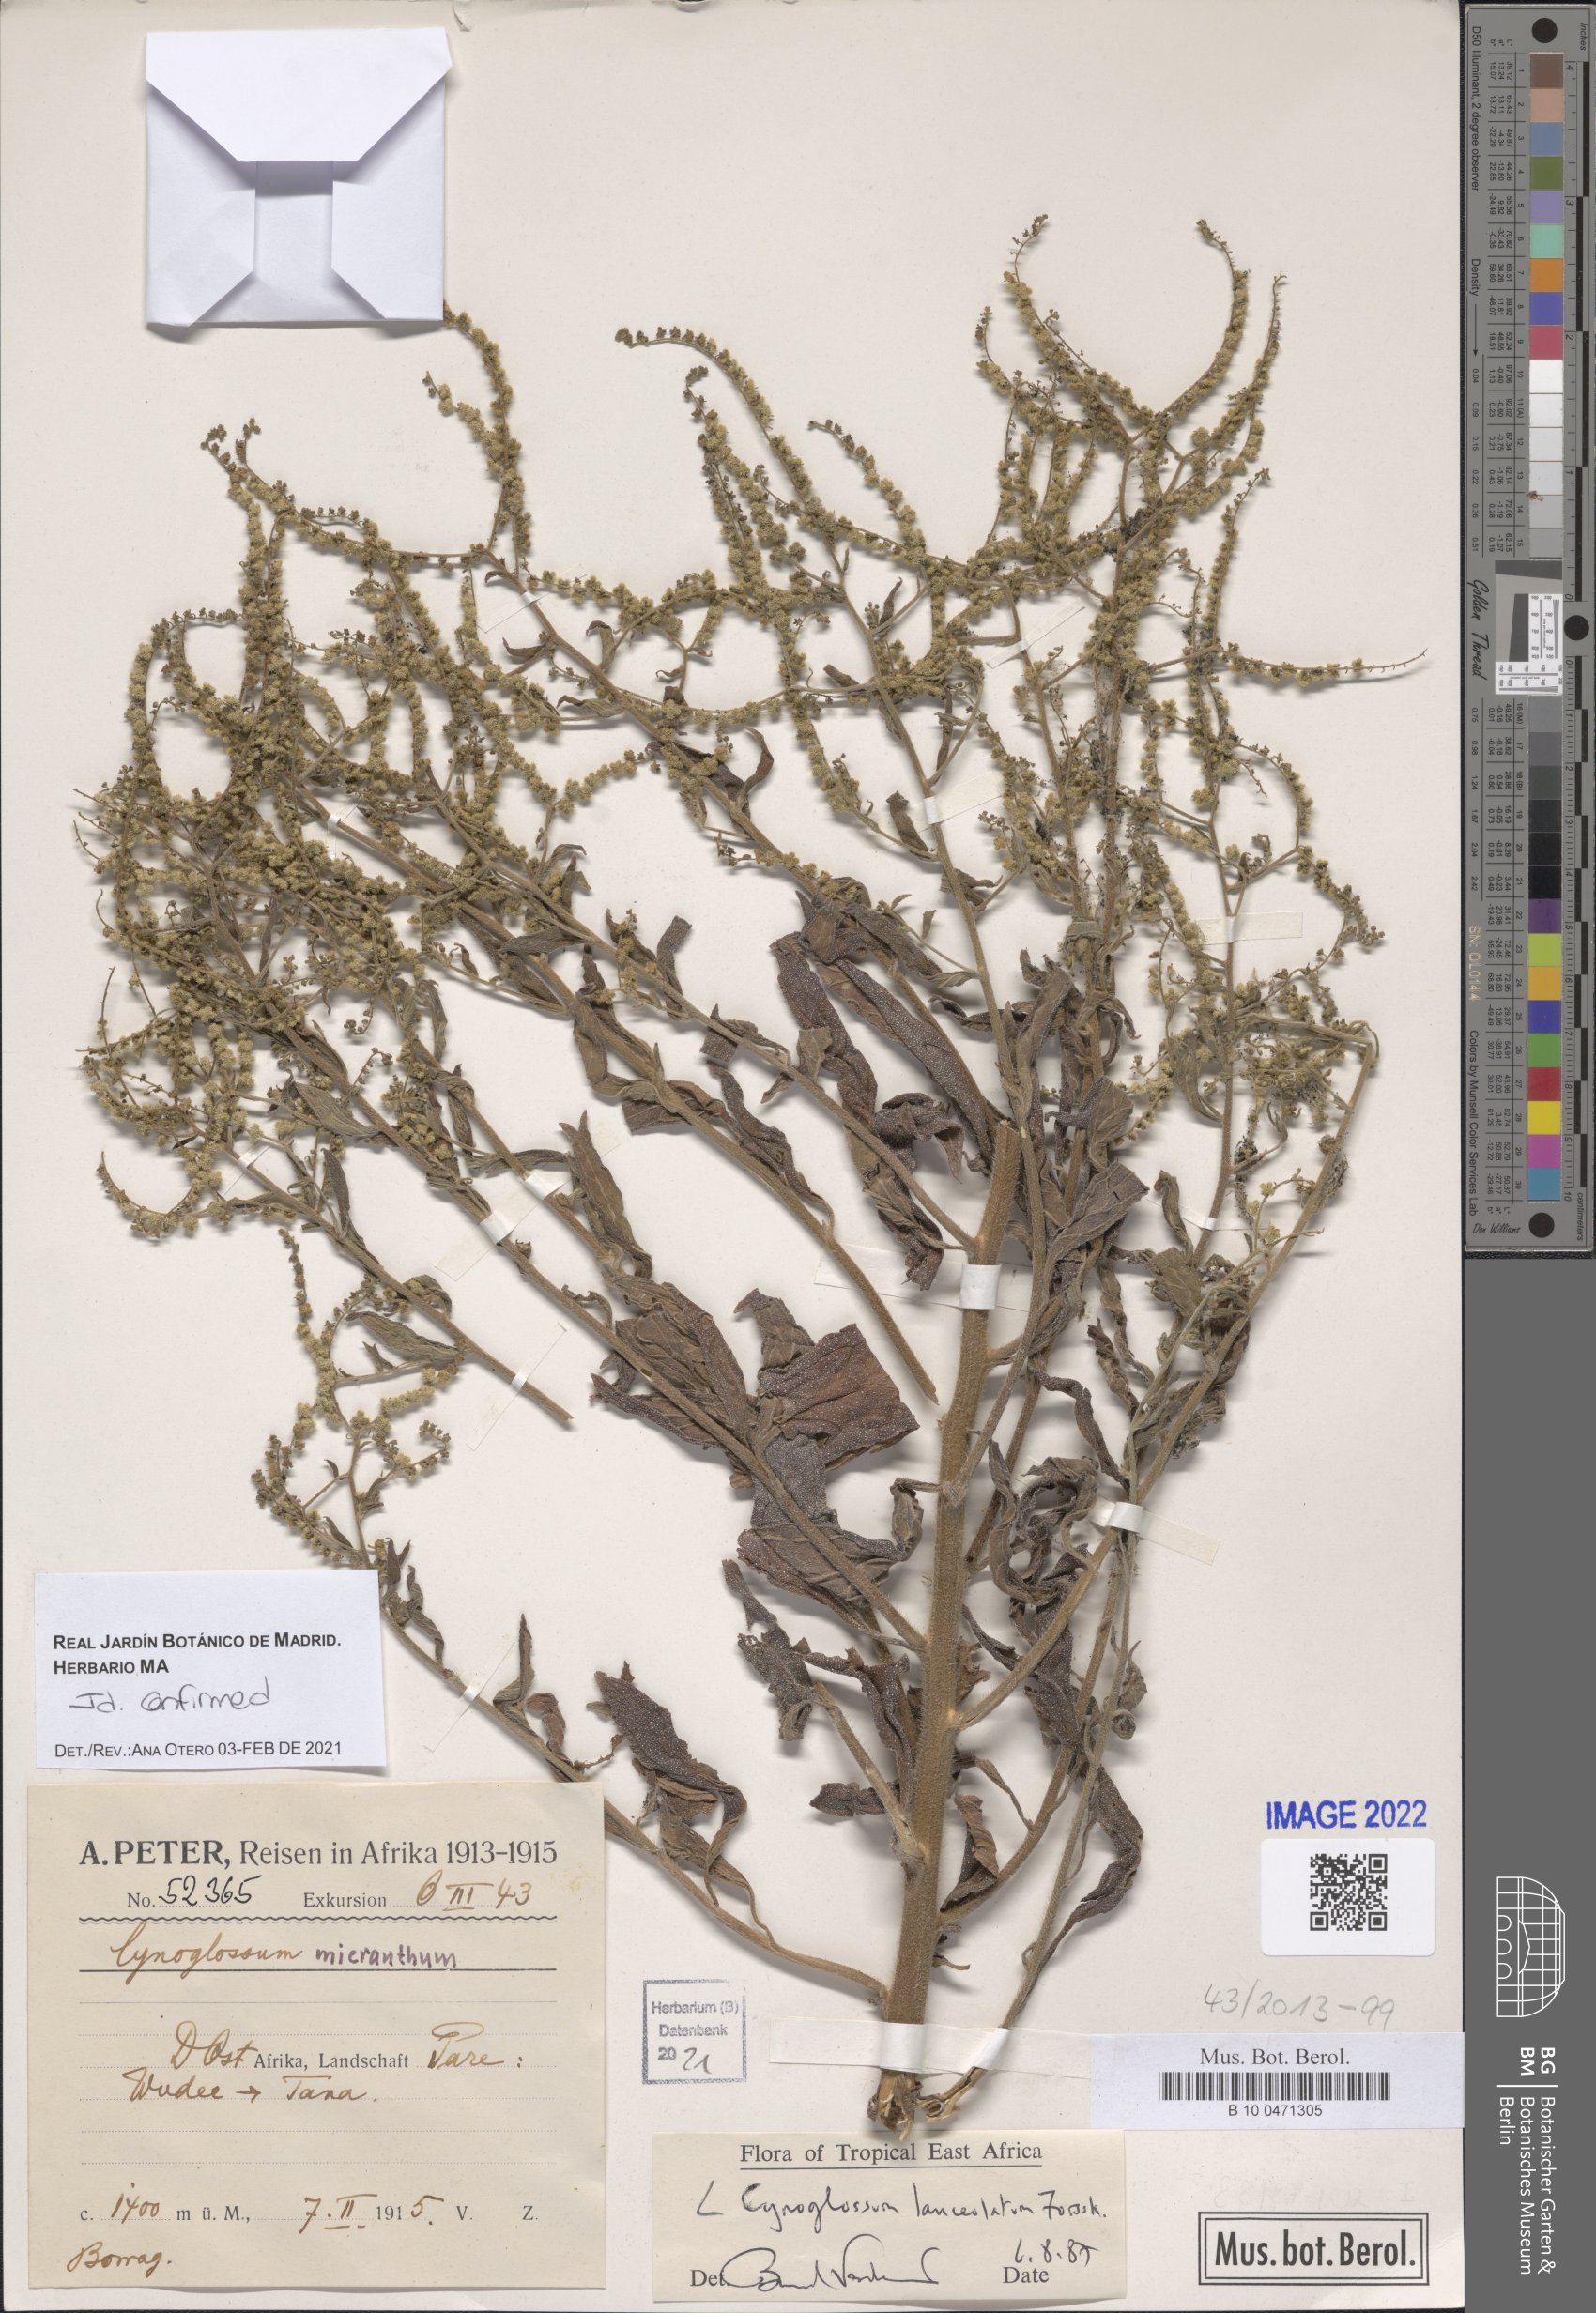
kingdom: Plantae
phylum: Tracheophyta
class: Magnoliopsida
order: Boraginales
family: Boraginaceae
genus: Paracynoglossum
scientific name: Paracynoglossum lanceolatum
